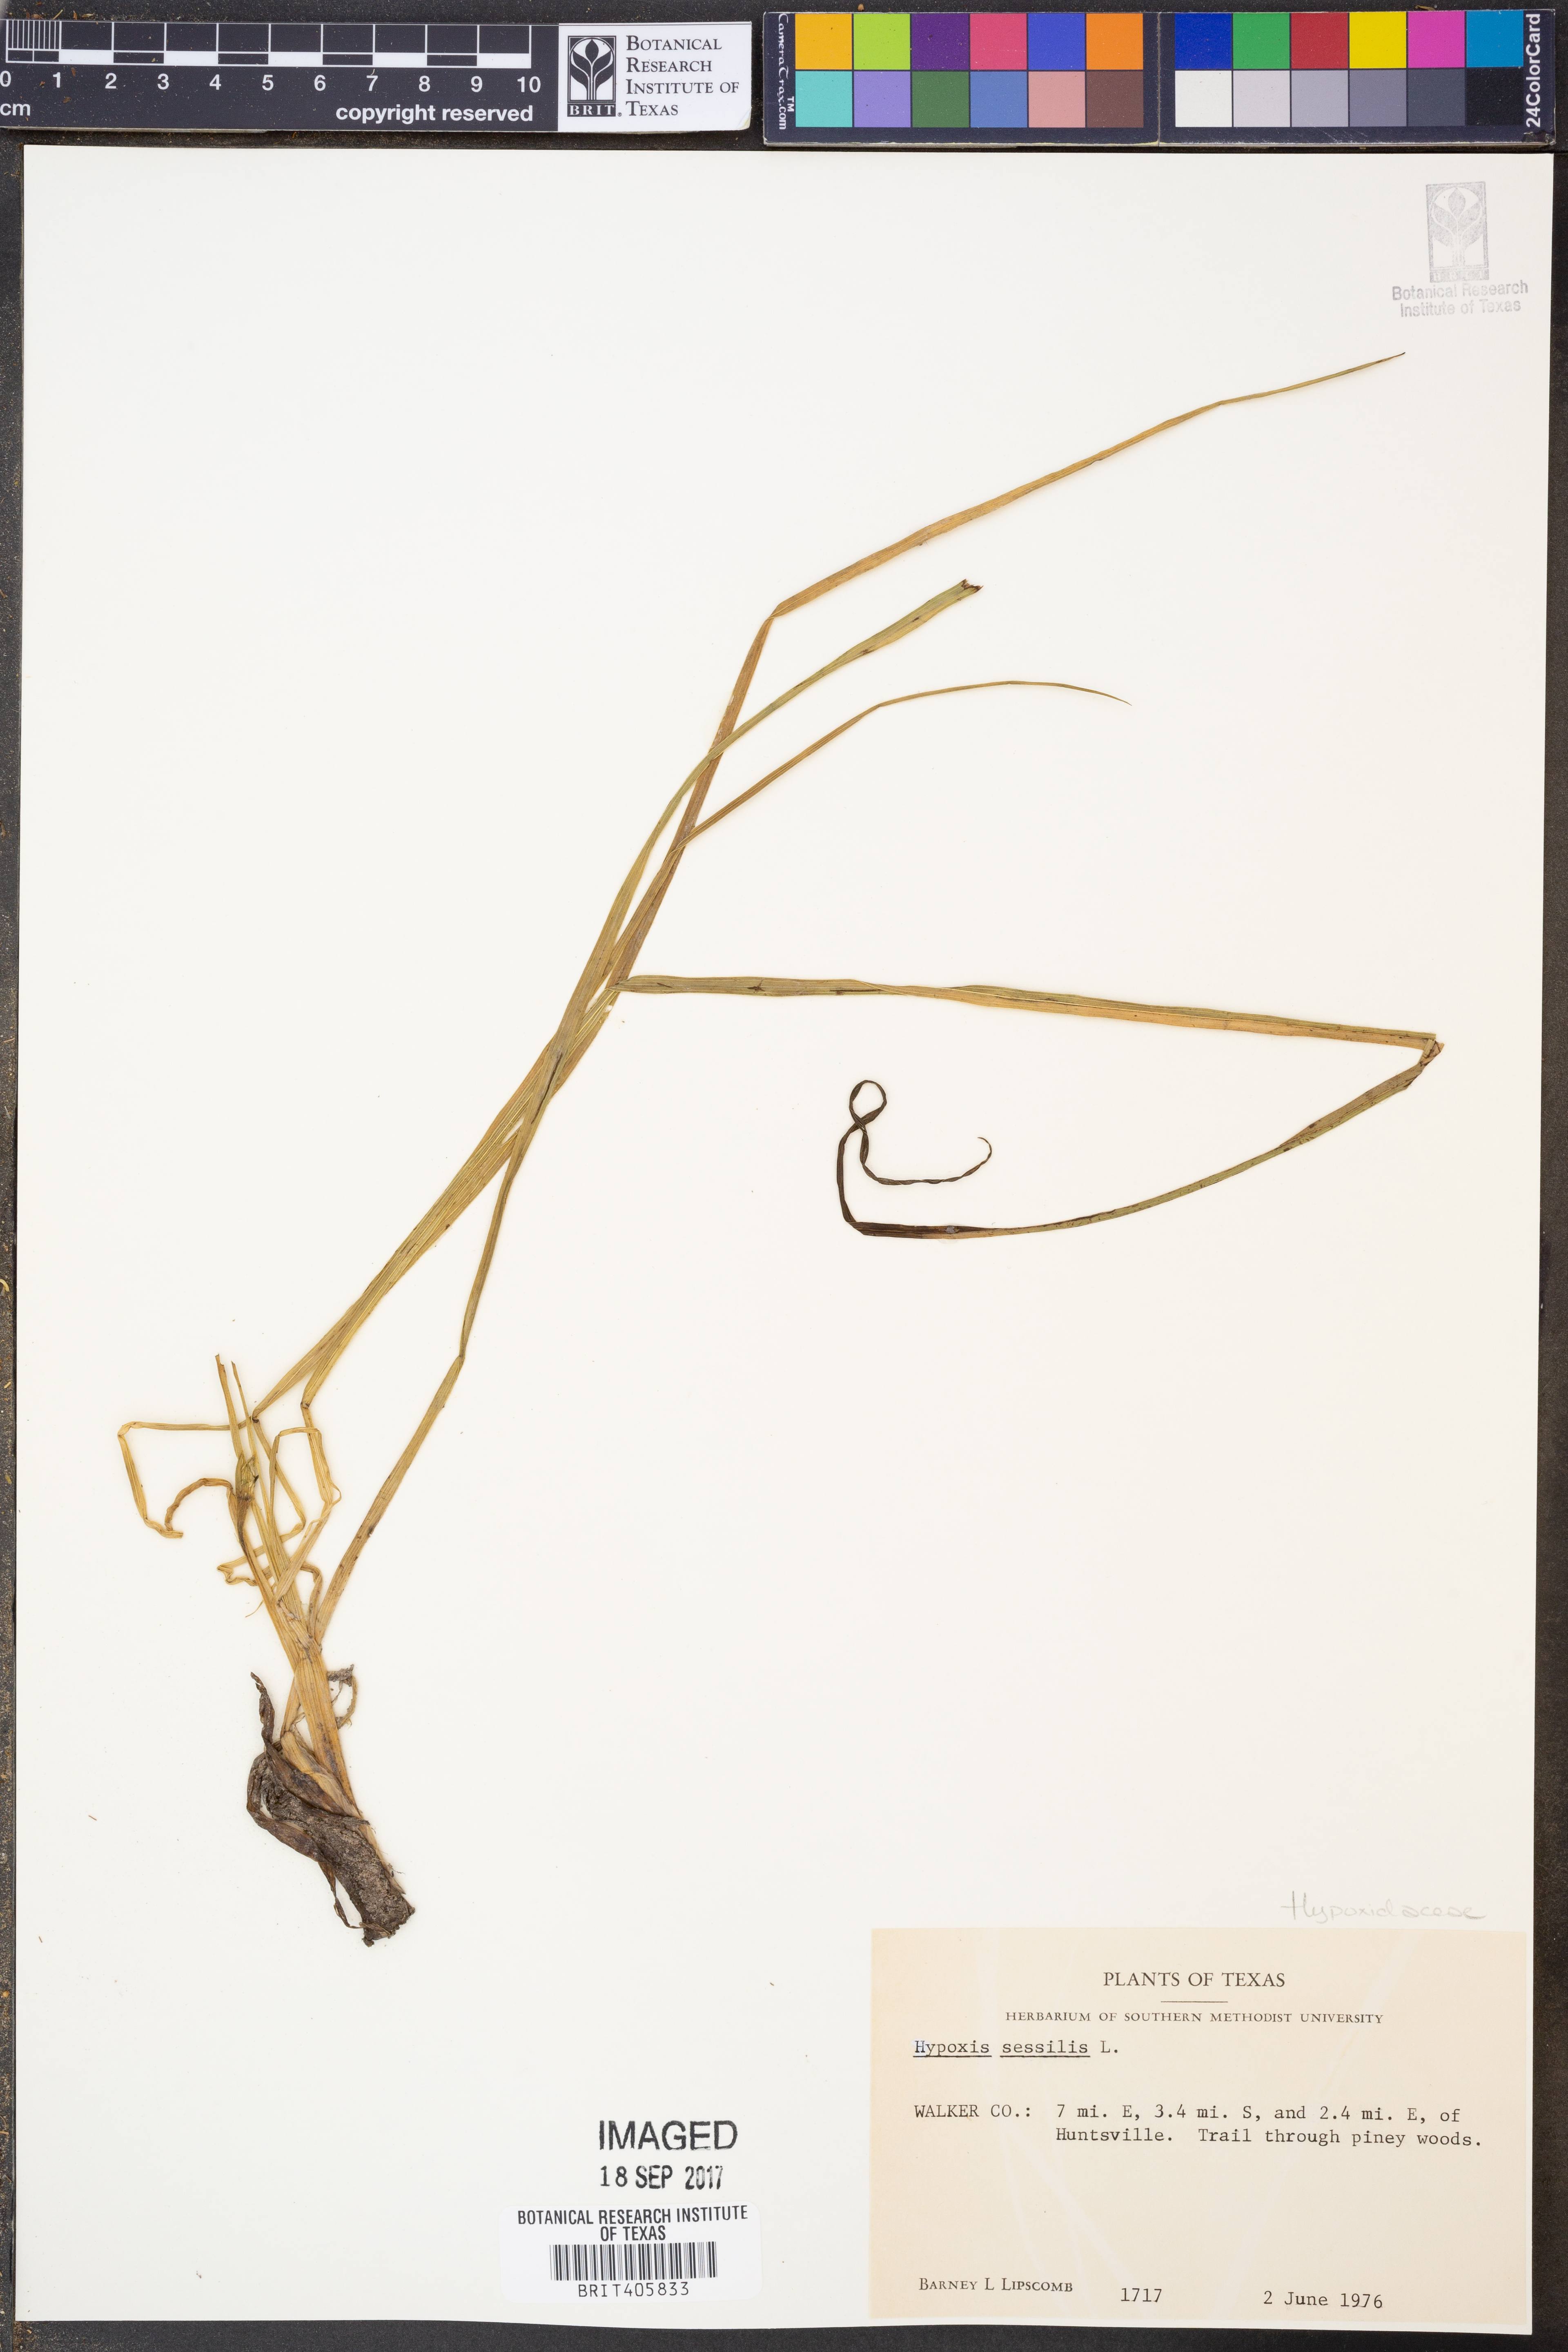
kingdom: Plantae
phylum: Tracheophyta
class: Liliopsida
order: Asparagales
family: Hypoxidaceae
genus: Hypoxis
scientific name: Hypoxis sessilis
